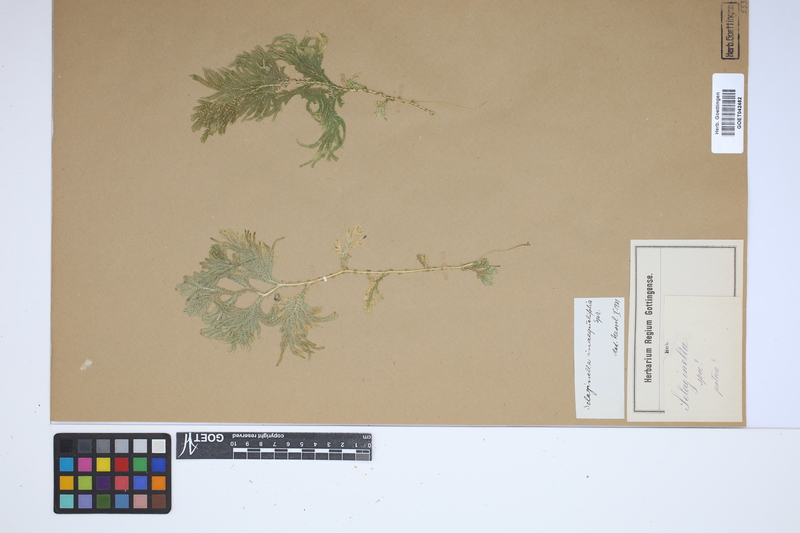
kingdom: Plantae
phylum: Tracheophyta
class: Lycopodiopsida
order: Selaginellales
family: Selaginellaceae
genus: Selaginella
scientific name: Selaginella inaequalifolia
